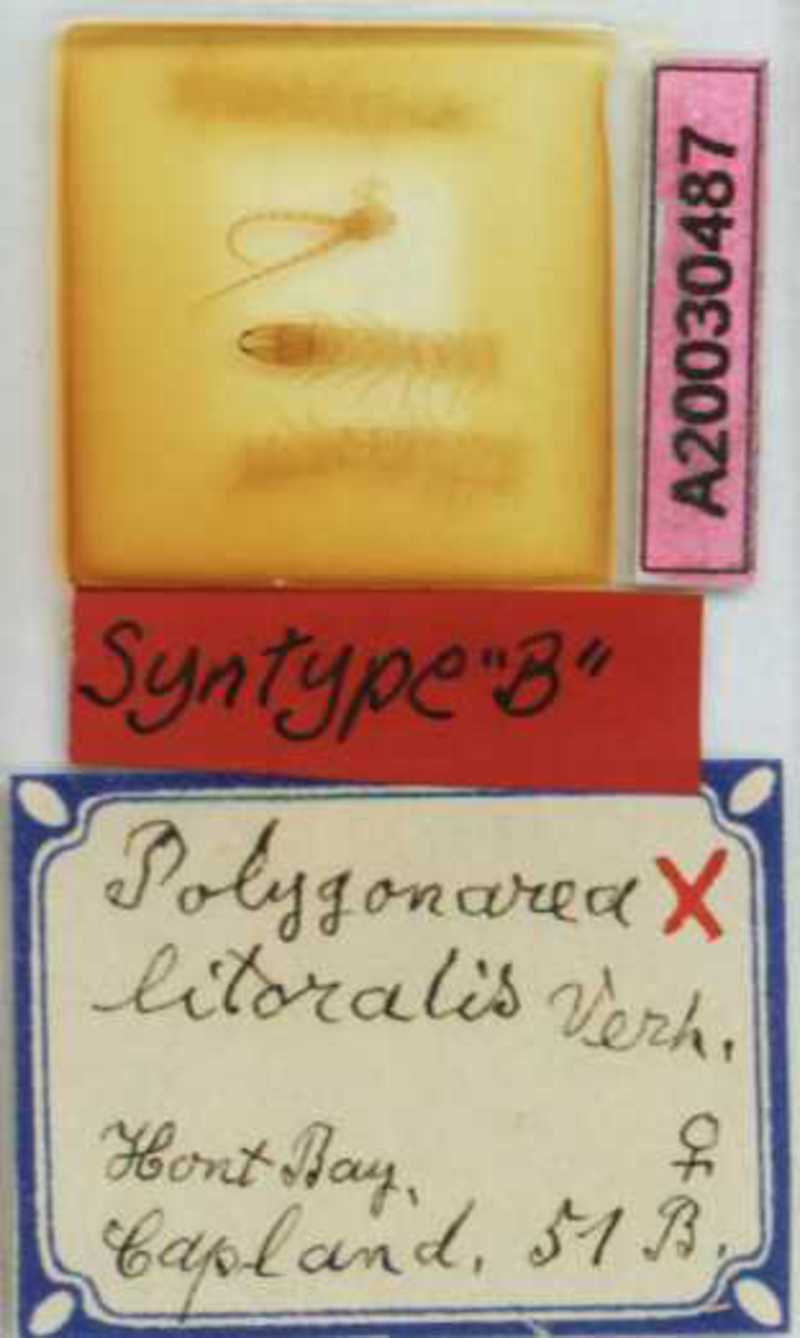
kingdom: Animalia
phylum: Arthropoda
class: Chilopoda
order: Geophilomorpha
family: Geophilidae
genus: Polygonarea
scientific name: Polygonarea litoralis
